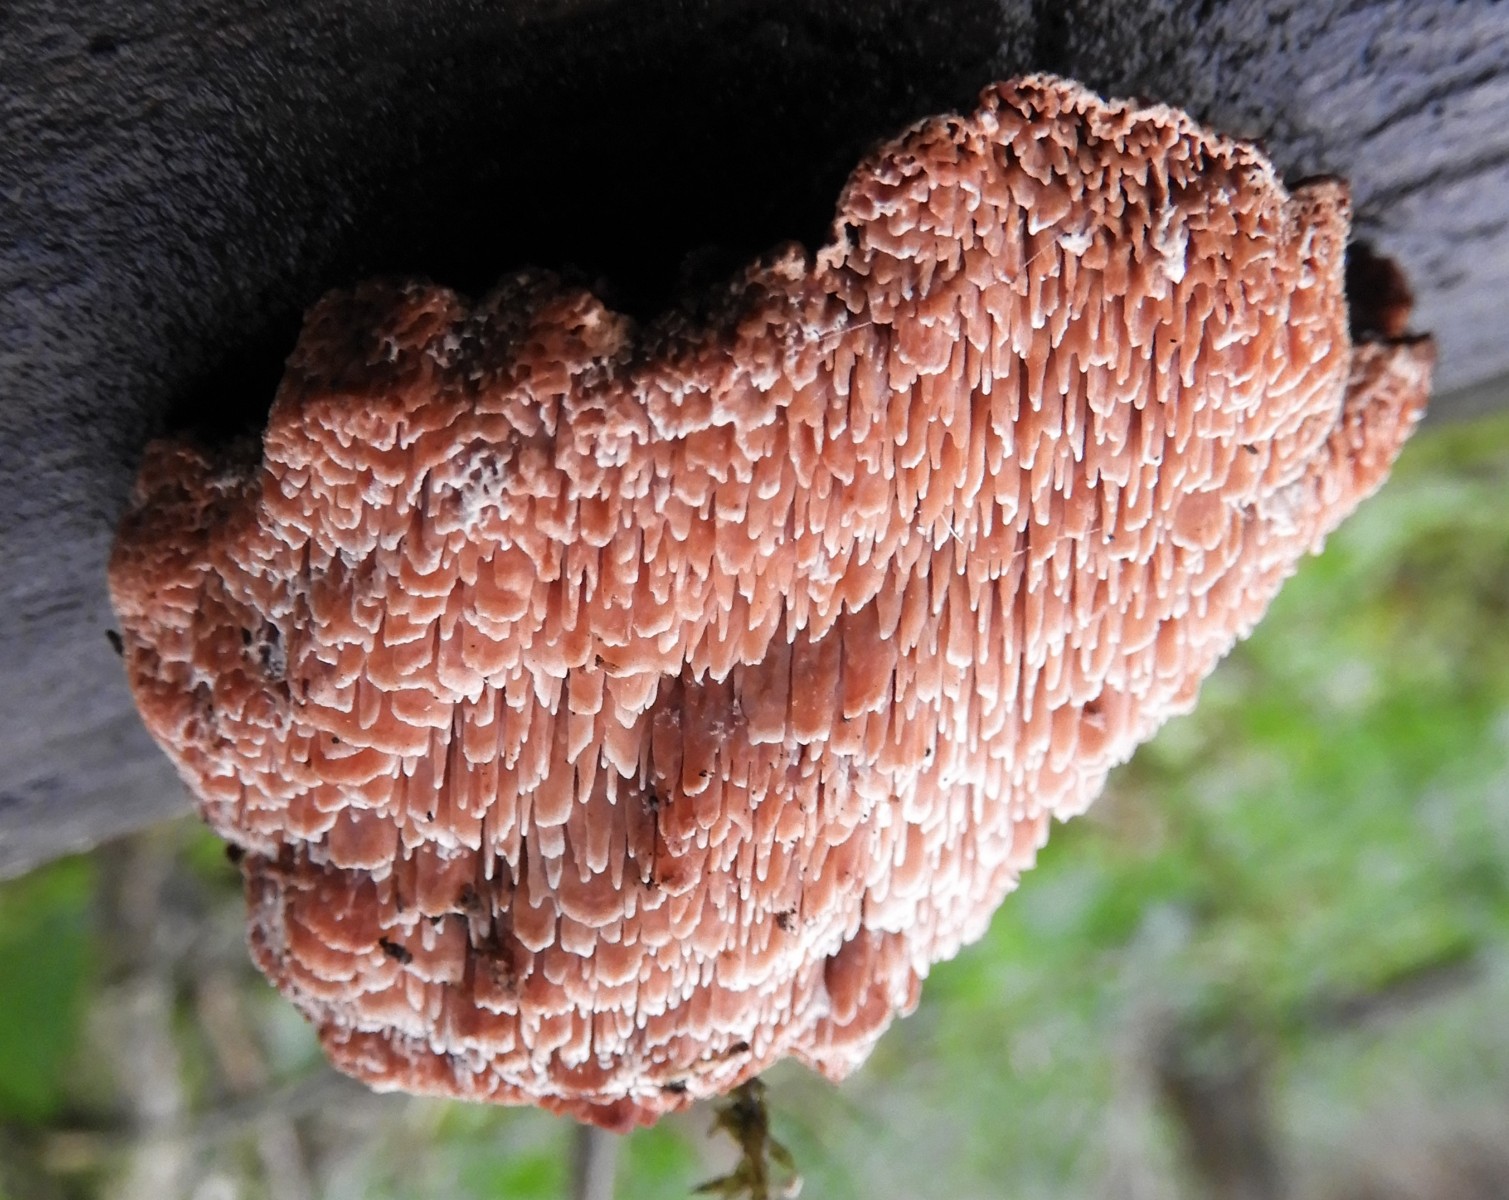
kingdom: Fungi
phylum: Basidiomycota
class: Agaricomycetes
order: Polyporales
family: Podoscyphaceae
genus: Abortiporus
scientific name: Abortiporus biennis
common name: rødmende pjalteporesvamp
